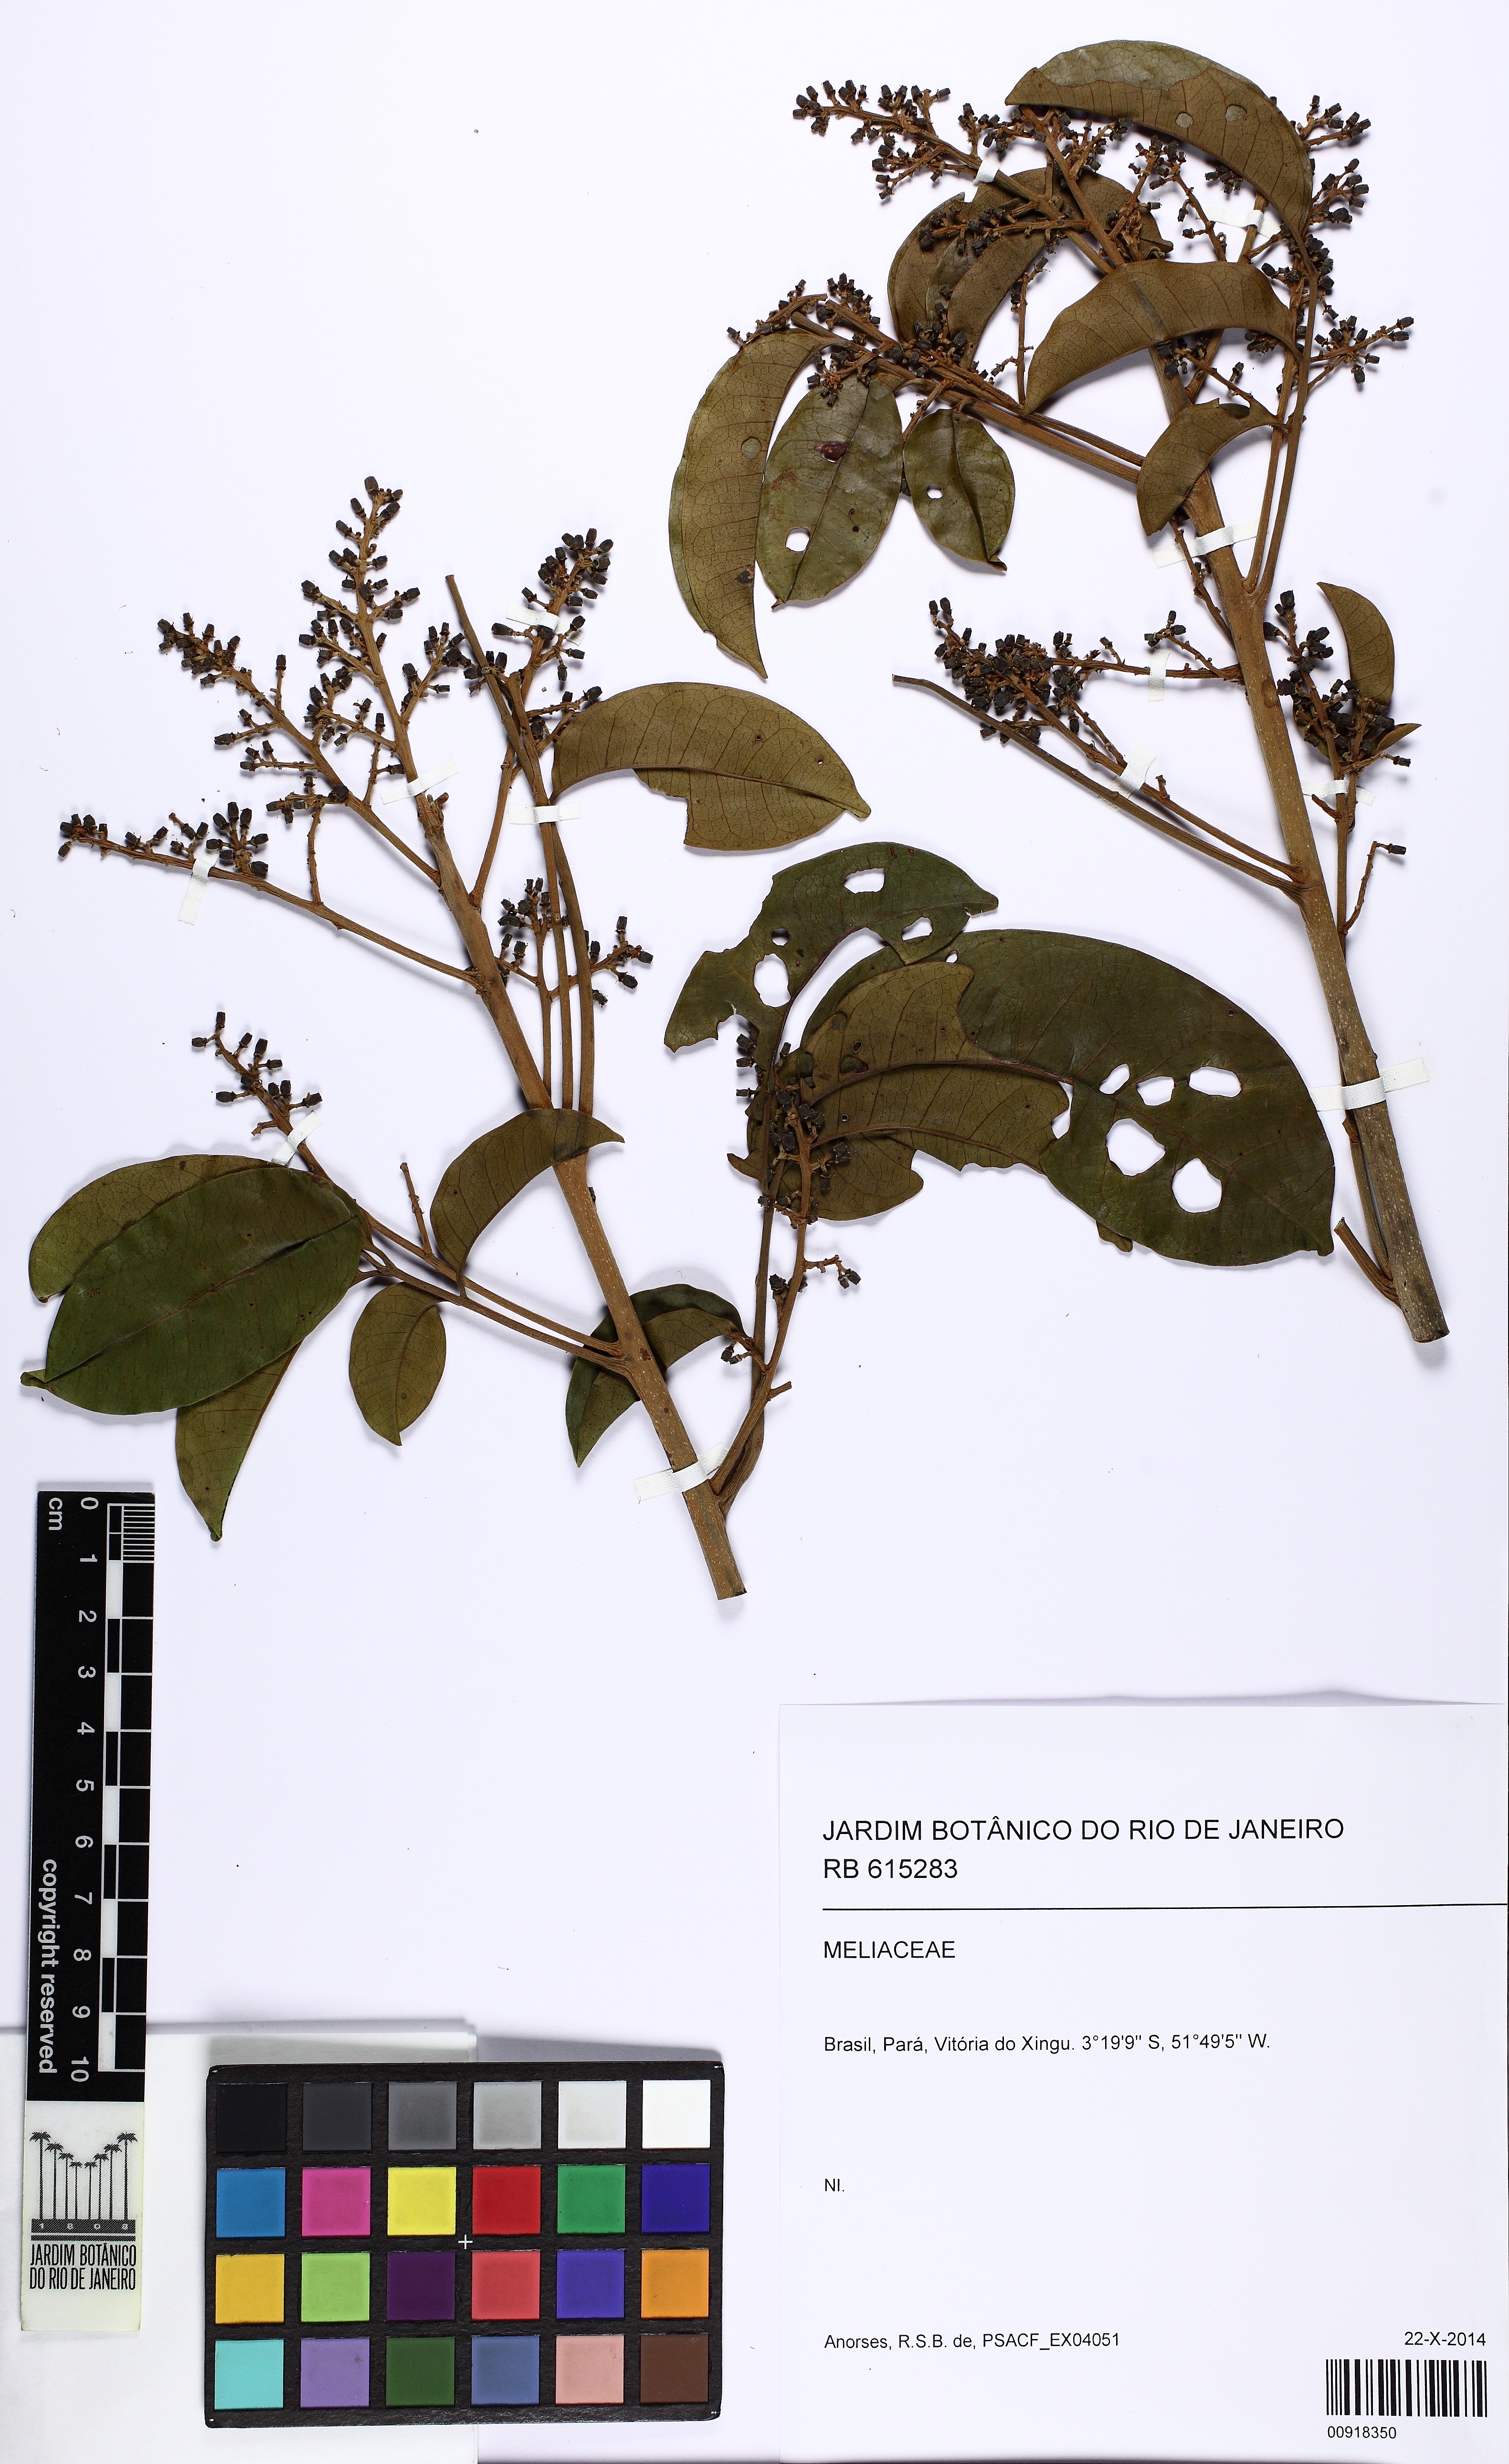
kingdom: Plantae
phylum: Tracheophyta
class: Magnoliopsida
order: Sapindales
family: Meliaceae
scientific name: Meliaceae
